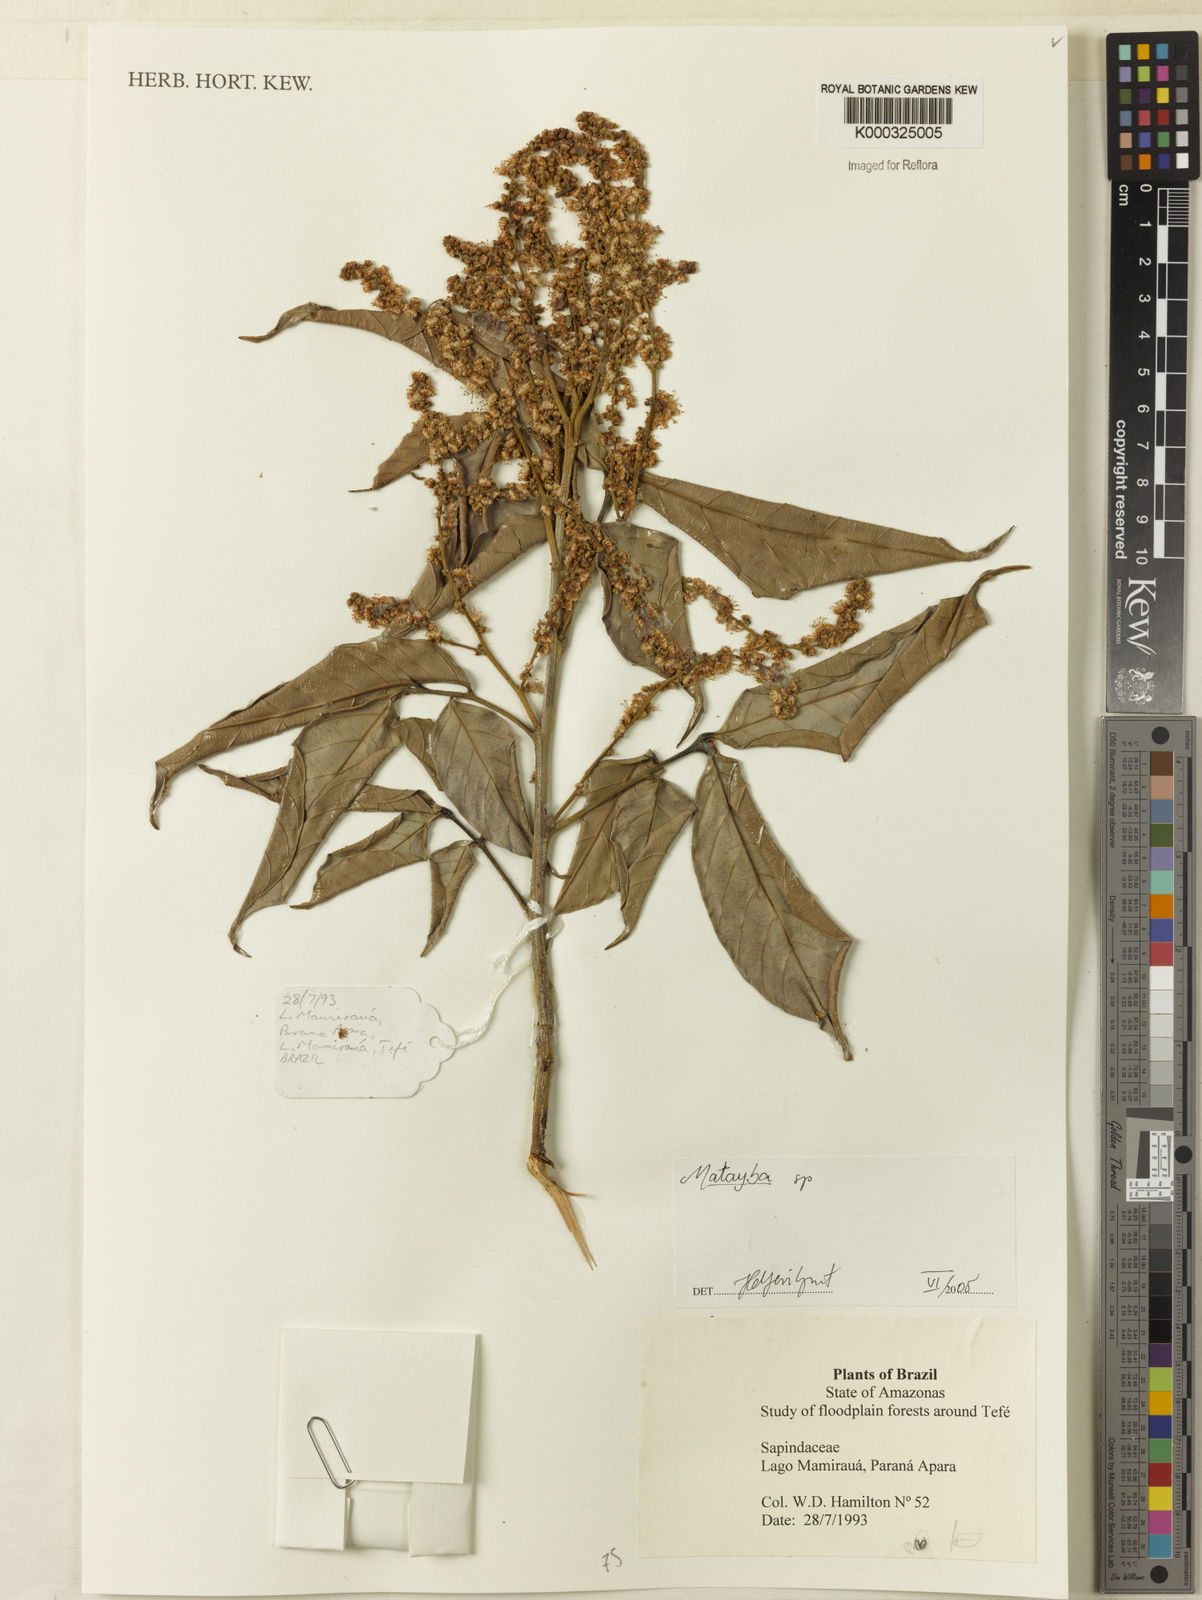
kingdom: Plantae
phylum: Tracheophyta
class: Magnoliopsida
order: Sapindales
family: Sapindaceae
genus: Matayba
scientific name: Matayba
